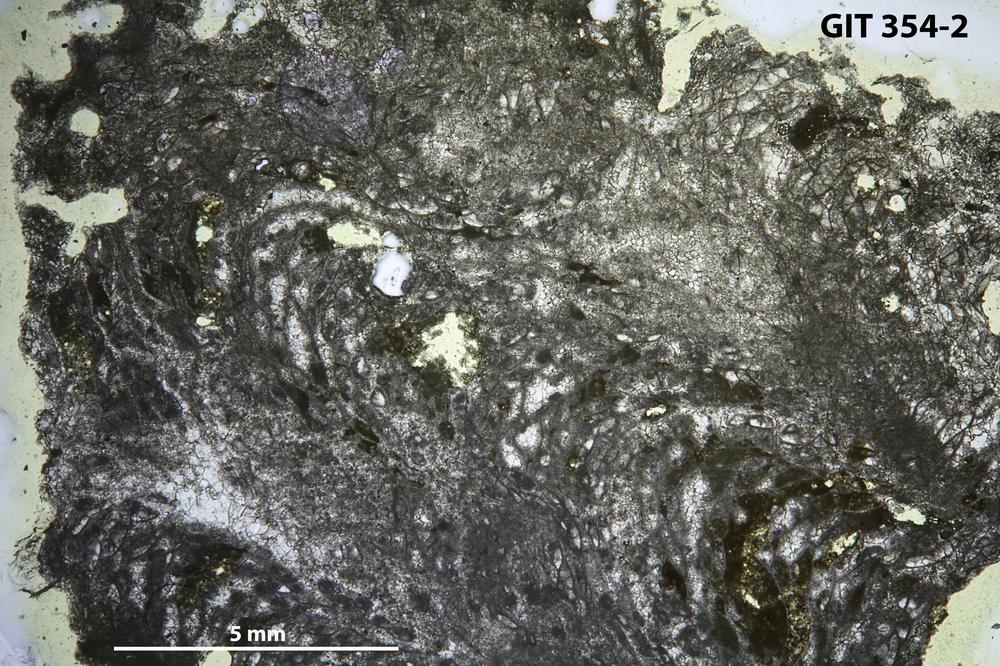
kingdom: Animalia
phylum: Porifera
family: Stromatoceriidae
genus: Cystistroma
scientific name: Cystistroma Stromatocerium canadense
